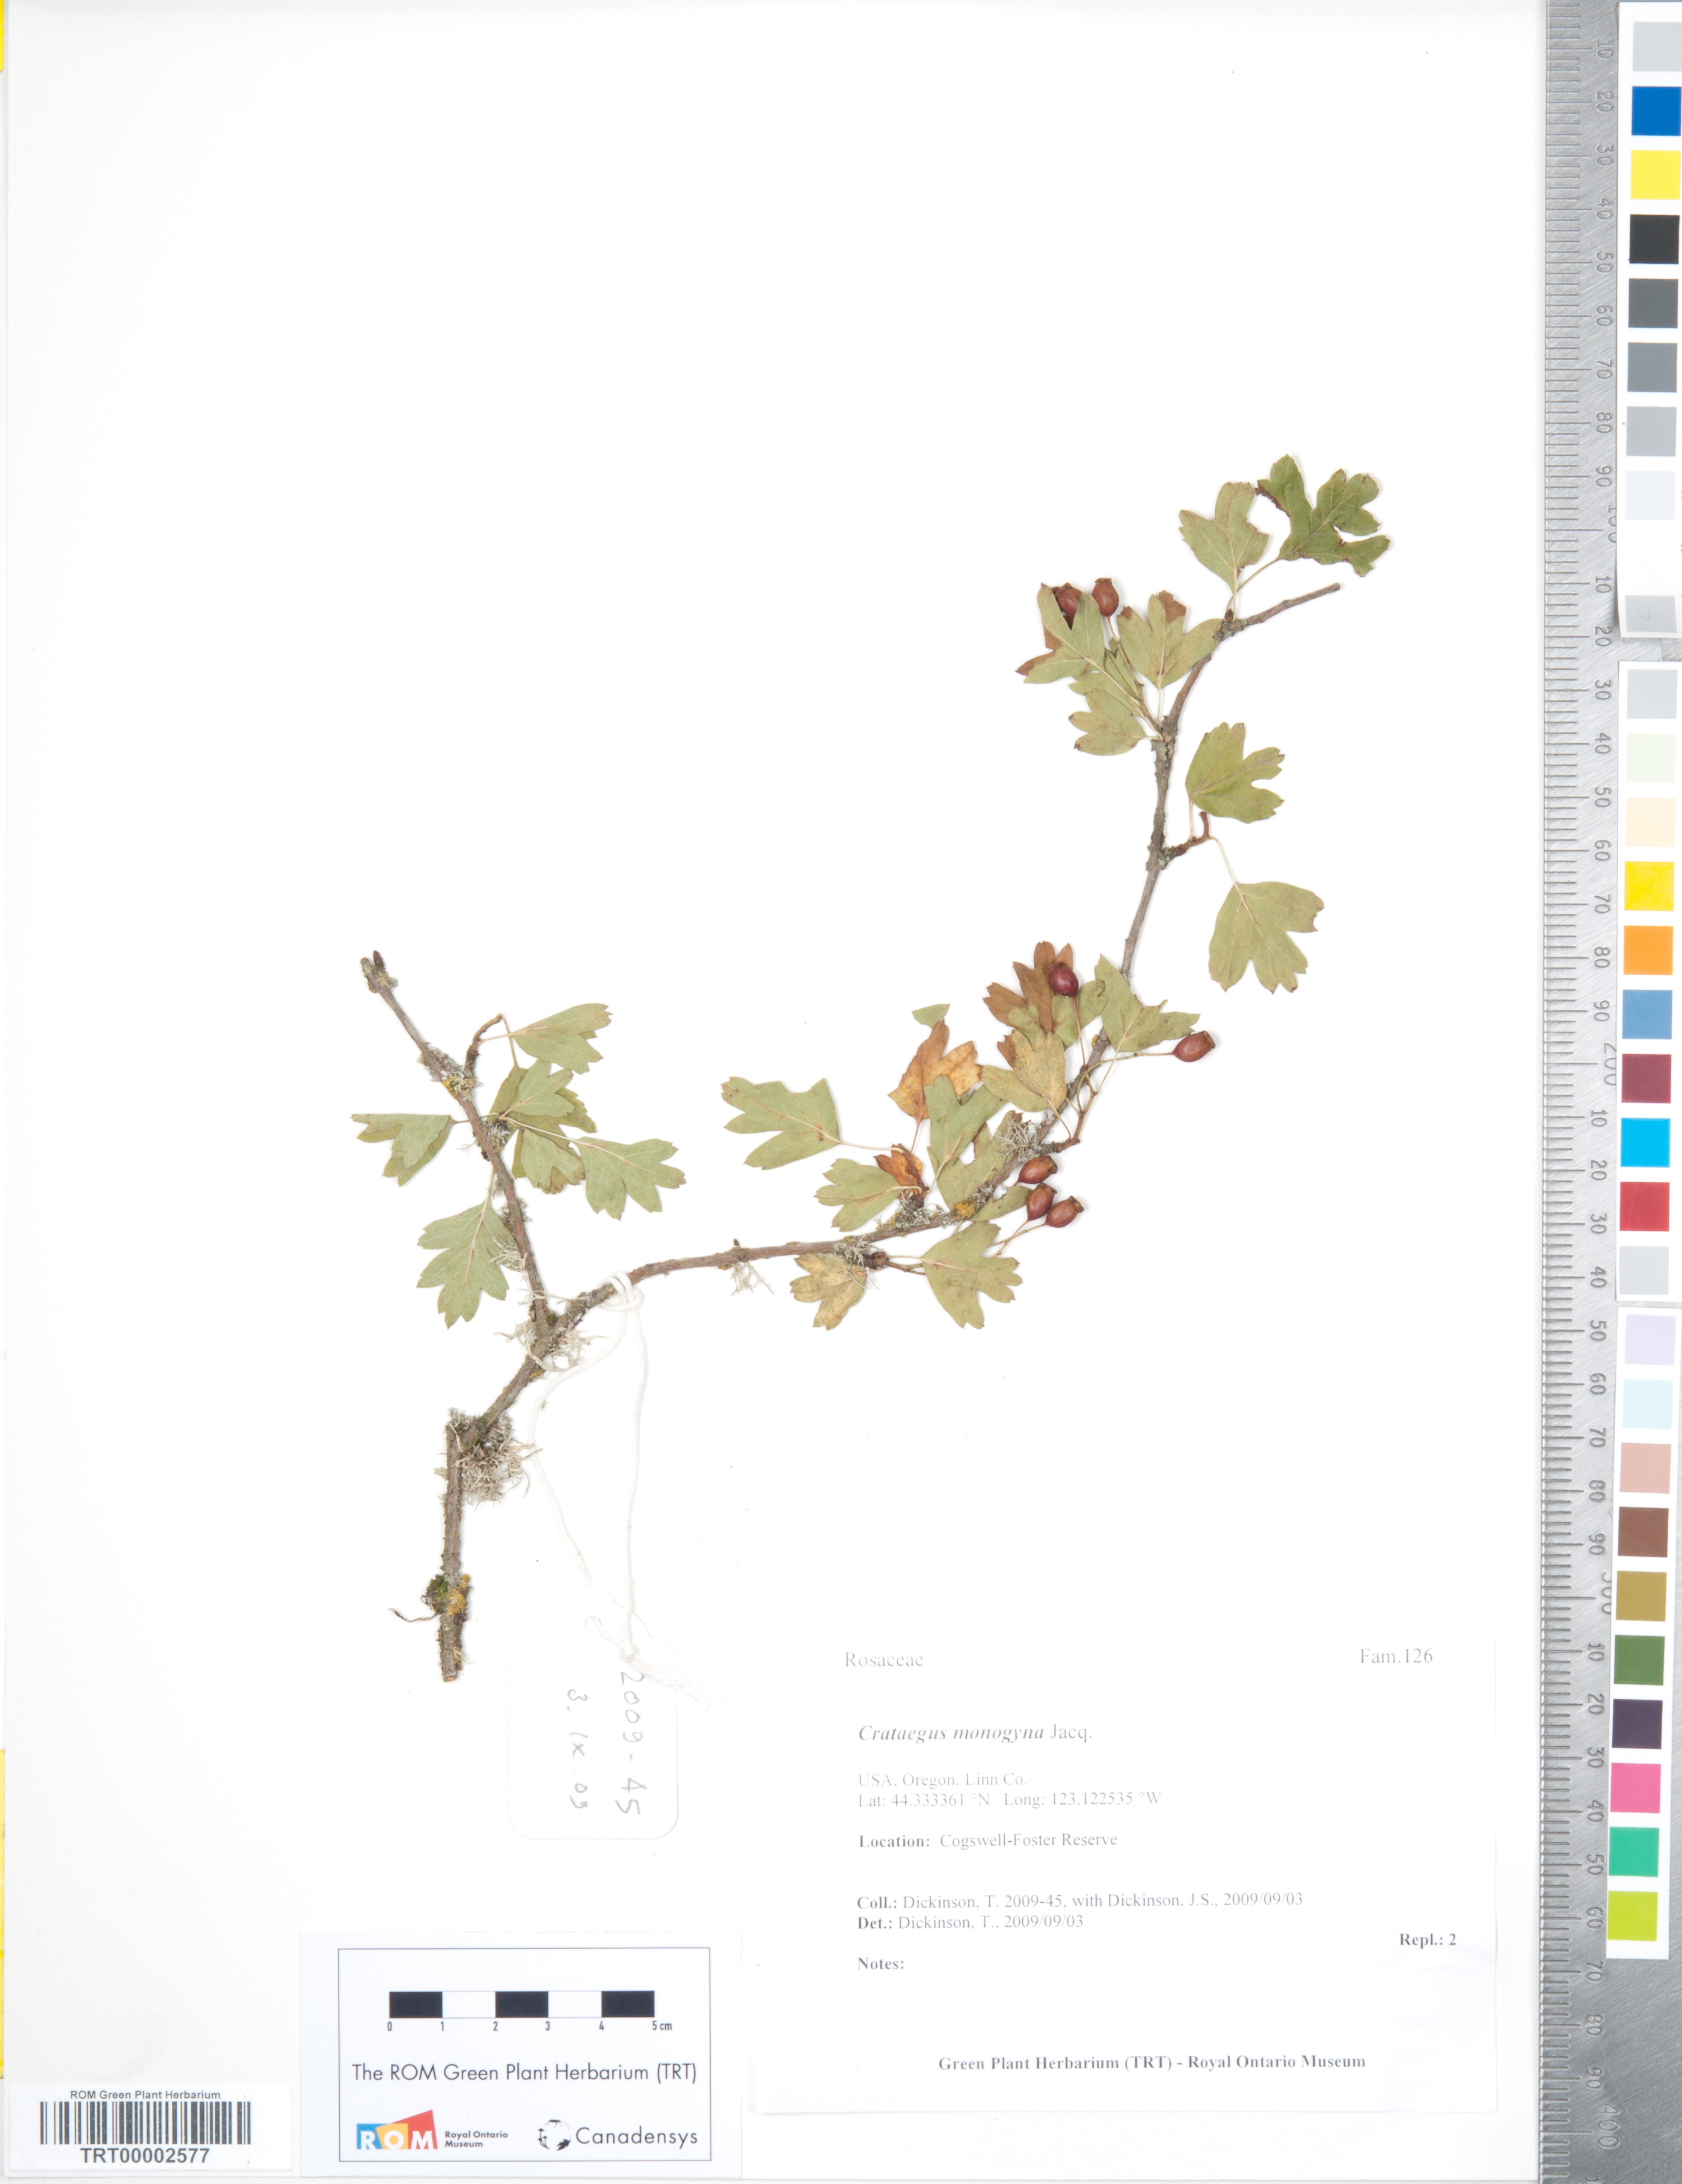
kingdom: Plantae
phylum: Tracheophyta
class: Magnoliopsida
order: Rosales
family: Rosaceae
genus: Crataegus
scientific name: Crataegus monogyna
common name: Hawthorn
